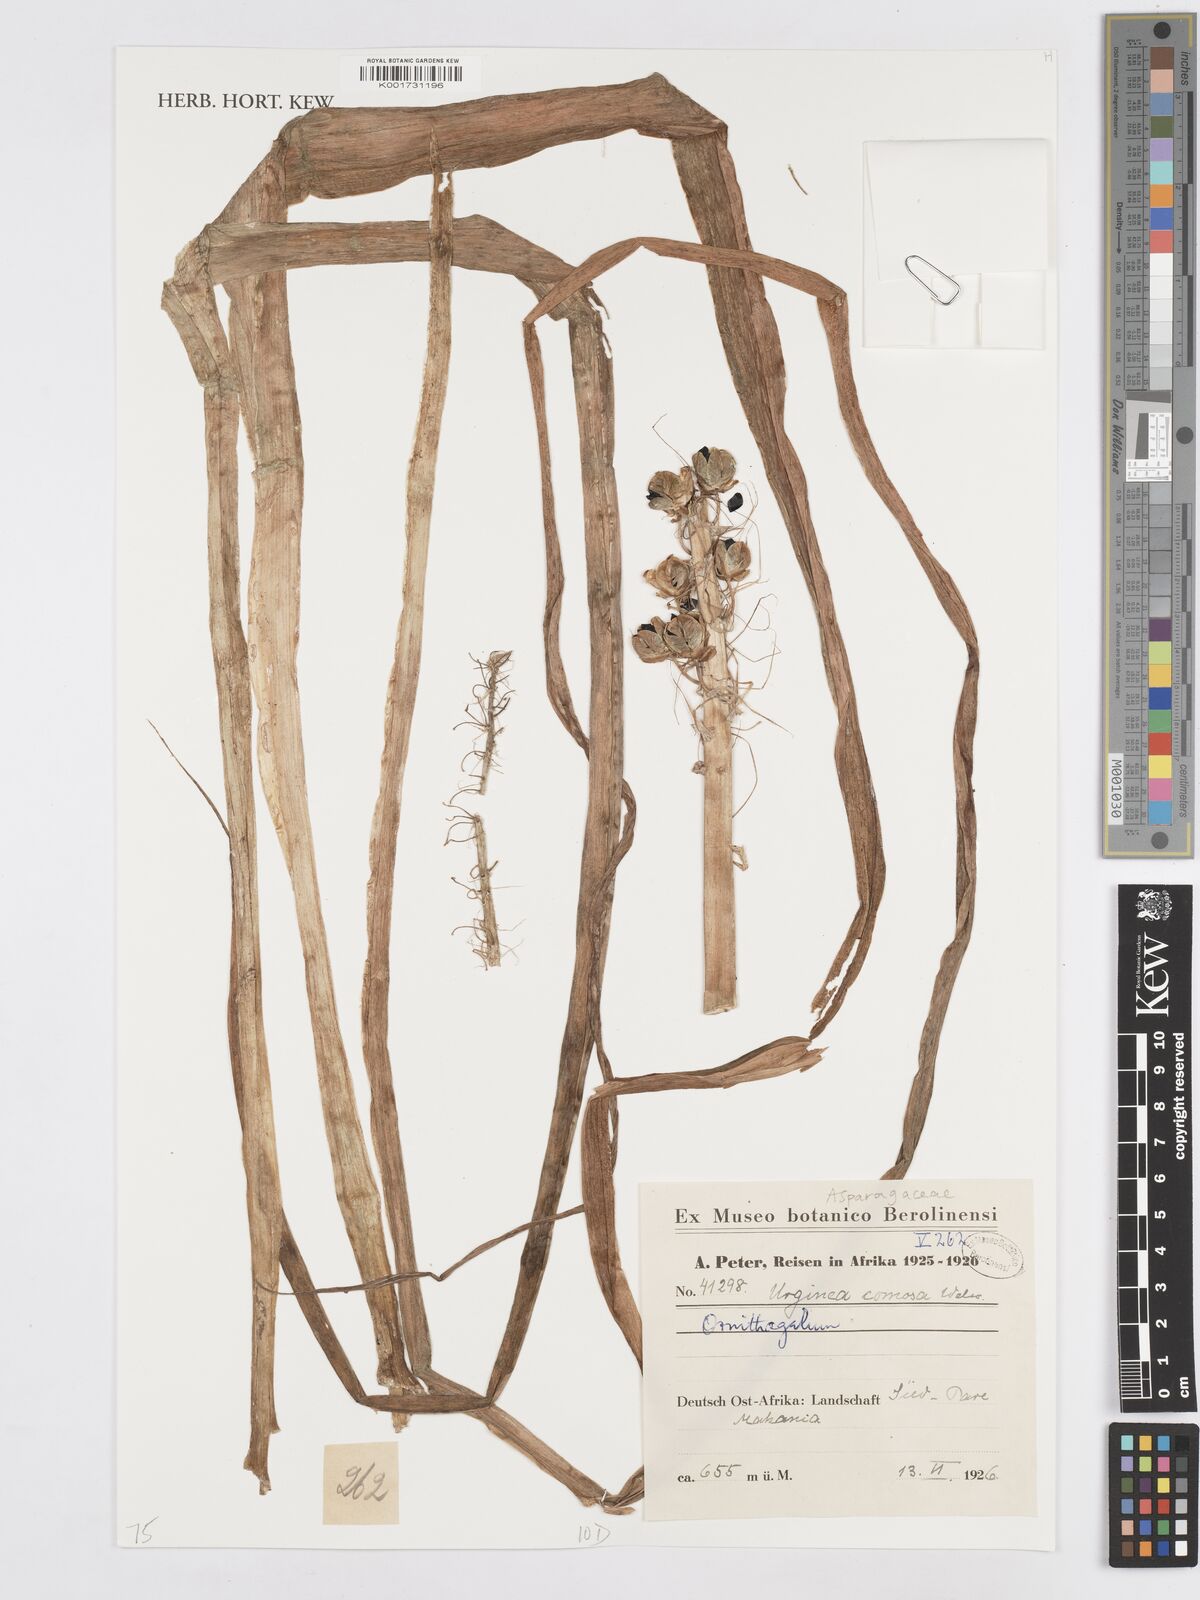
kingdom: Plantae
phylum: Tracheophyta
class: Liliopsida
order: Asparagales
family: Asparagaceae
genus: Albuca
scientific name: Albuca comosa
